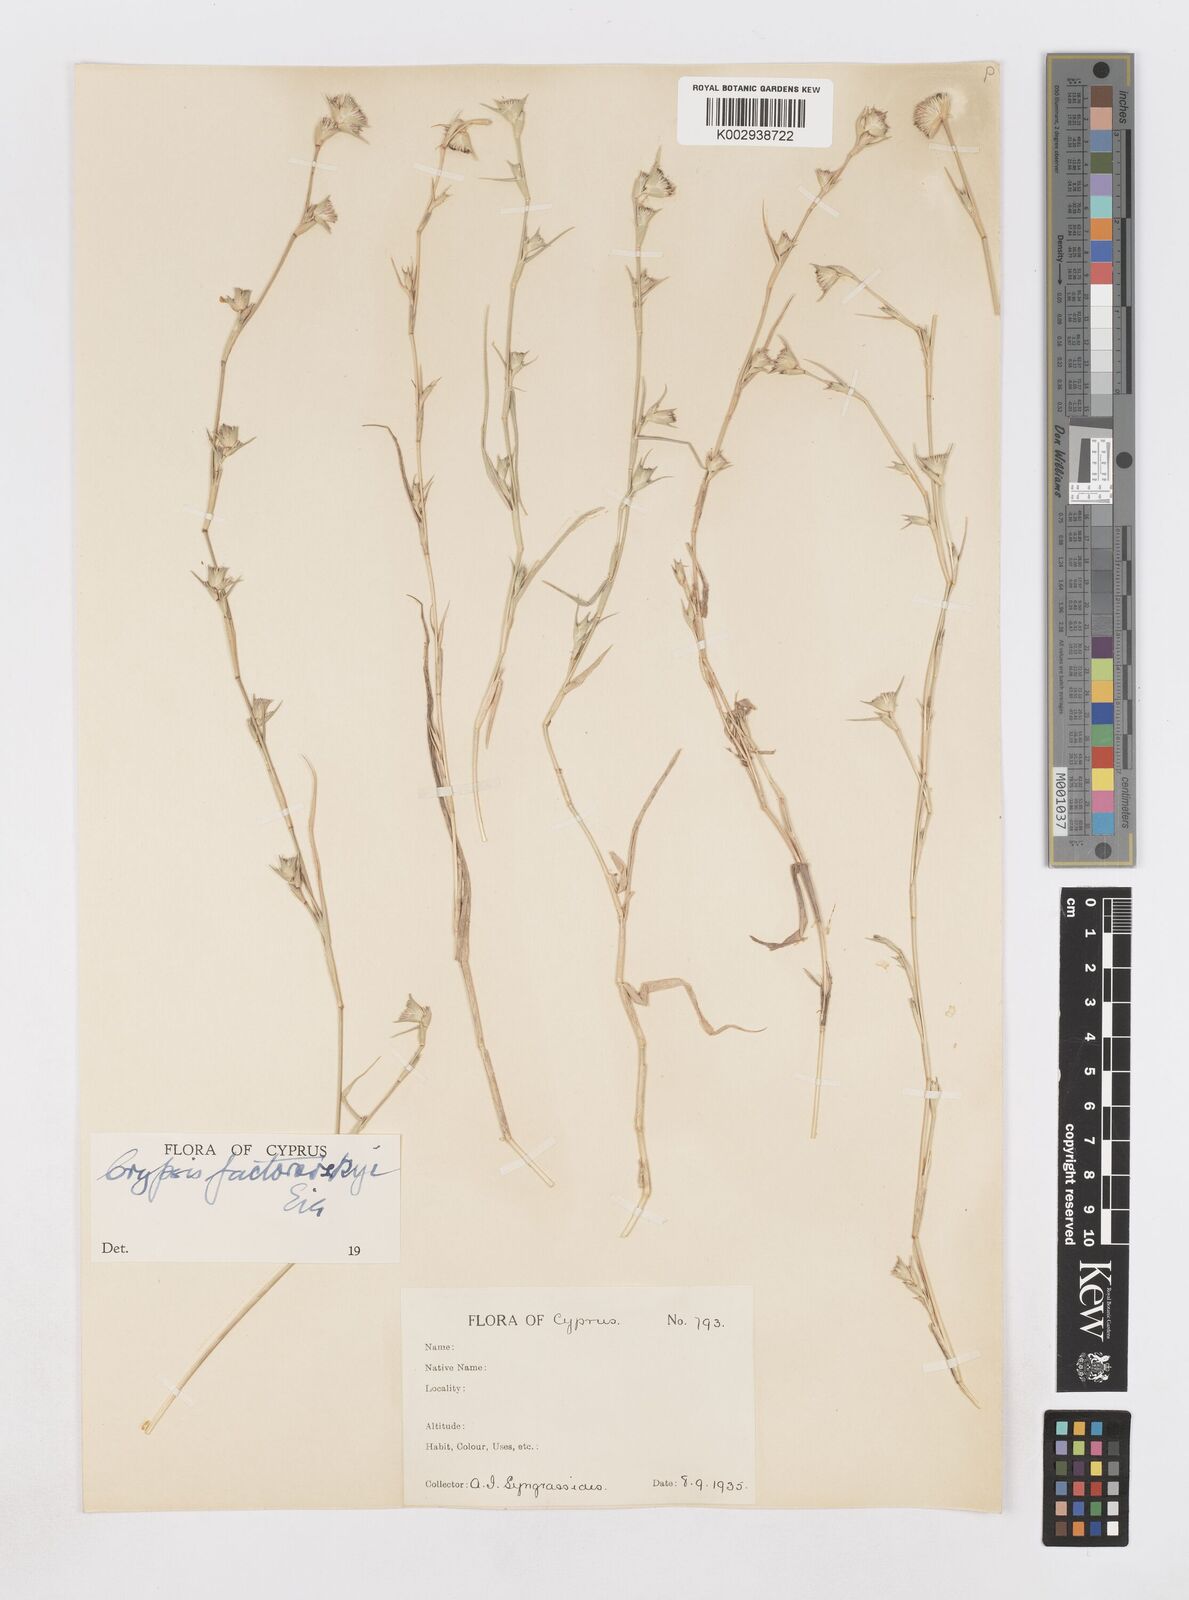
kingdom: Plantae
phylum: Tracheophyta
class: Liliopsida
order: Poales
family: Poaceae
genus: Sporobolus
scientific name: Sporobolus factorovskyi
